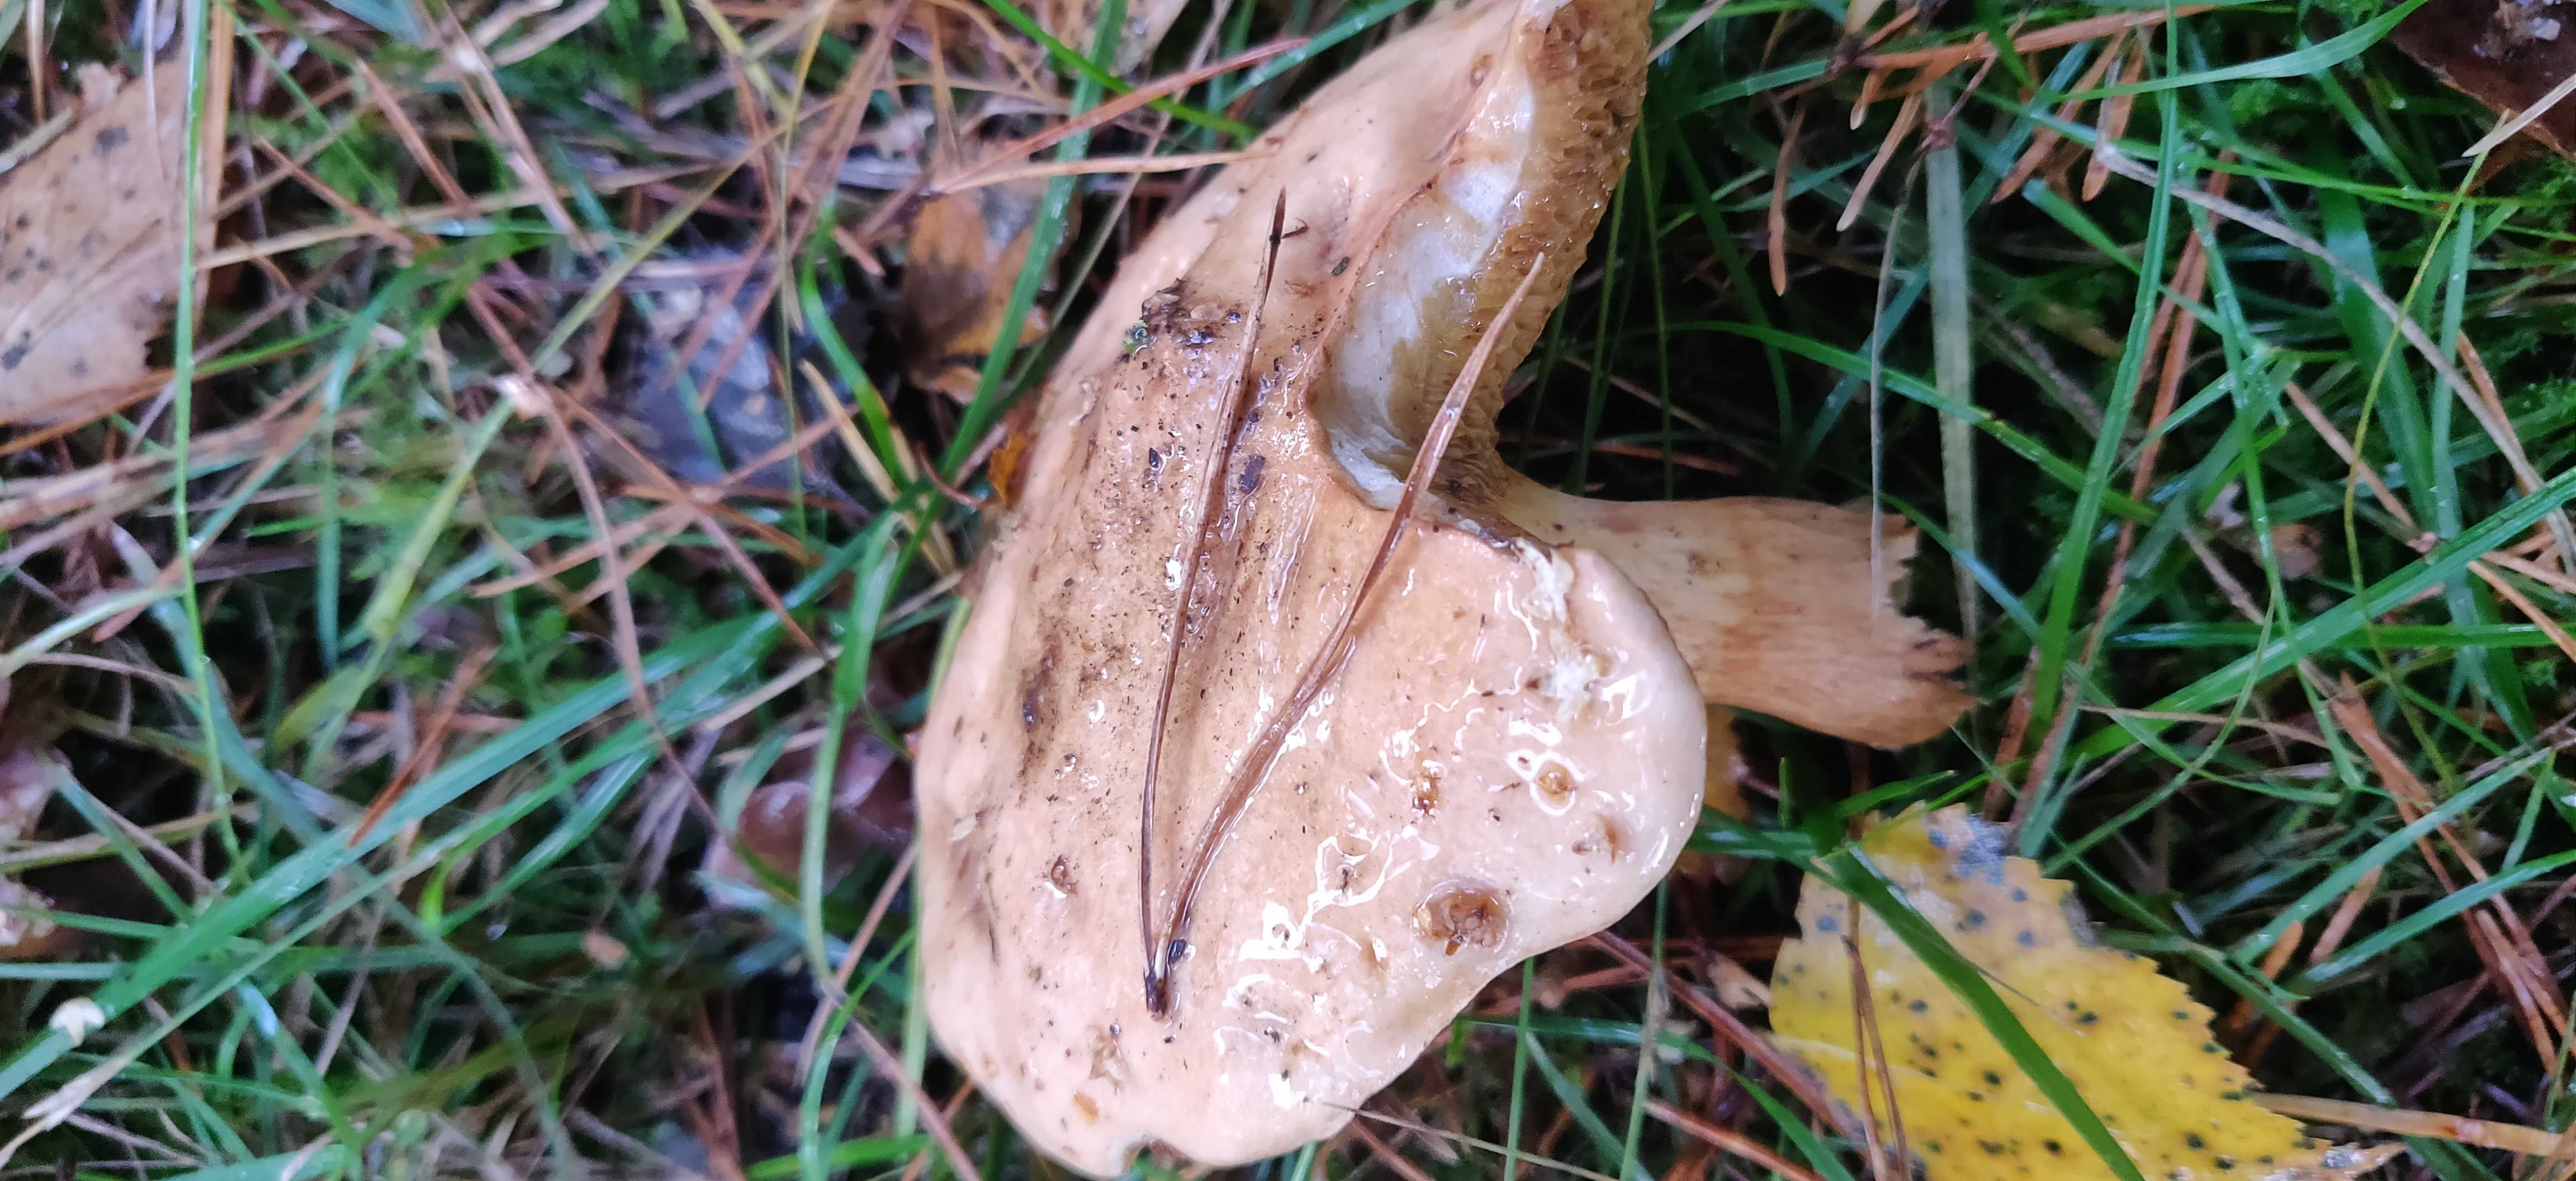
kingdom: Fungi
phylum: Basidiomycota
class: Agaricomycetes
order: Boletales
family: Suillaceae
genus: Suillus
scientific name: Suillus bovinus
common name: grovporet slimrørhat
